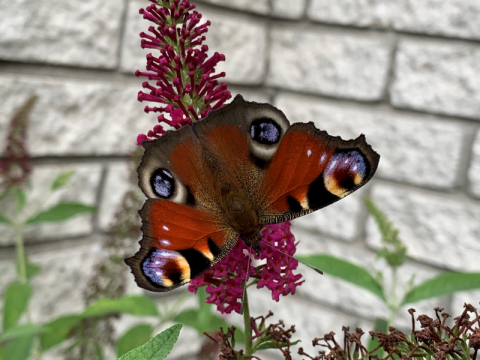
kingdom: Animalia
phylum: Arthropoda
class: Insecta
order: Lepidoptera
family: Nymphalidae
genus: Aglais
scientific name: Aglais io
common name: European Peacock
